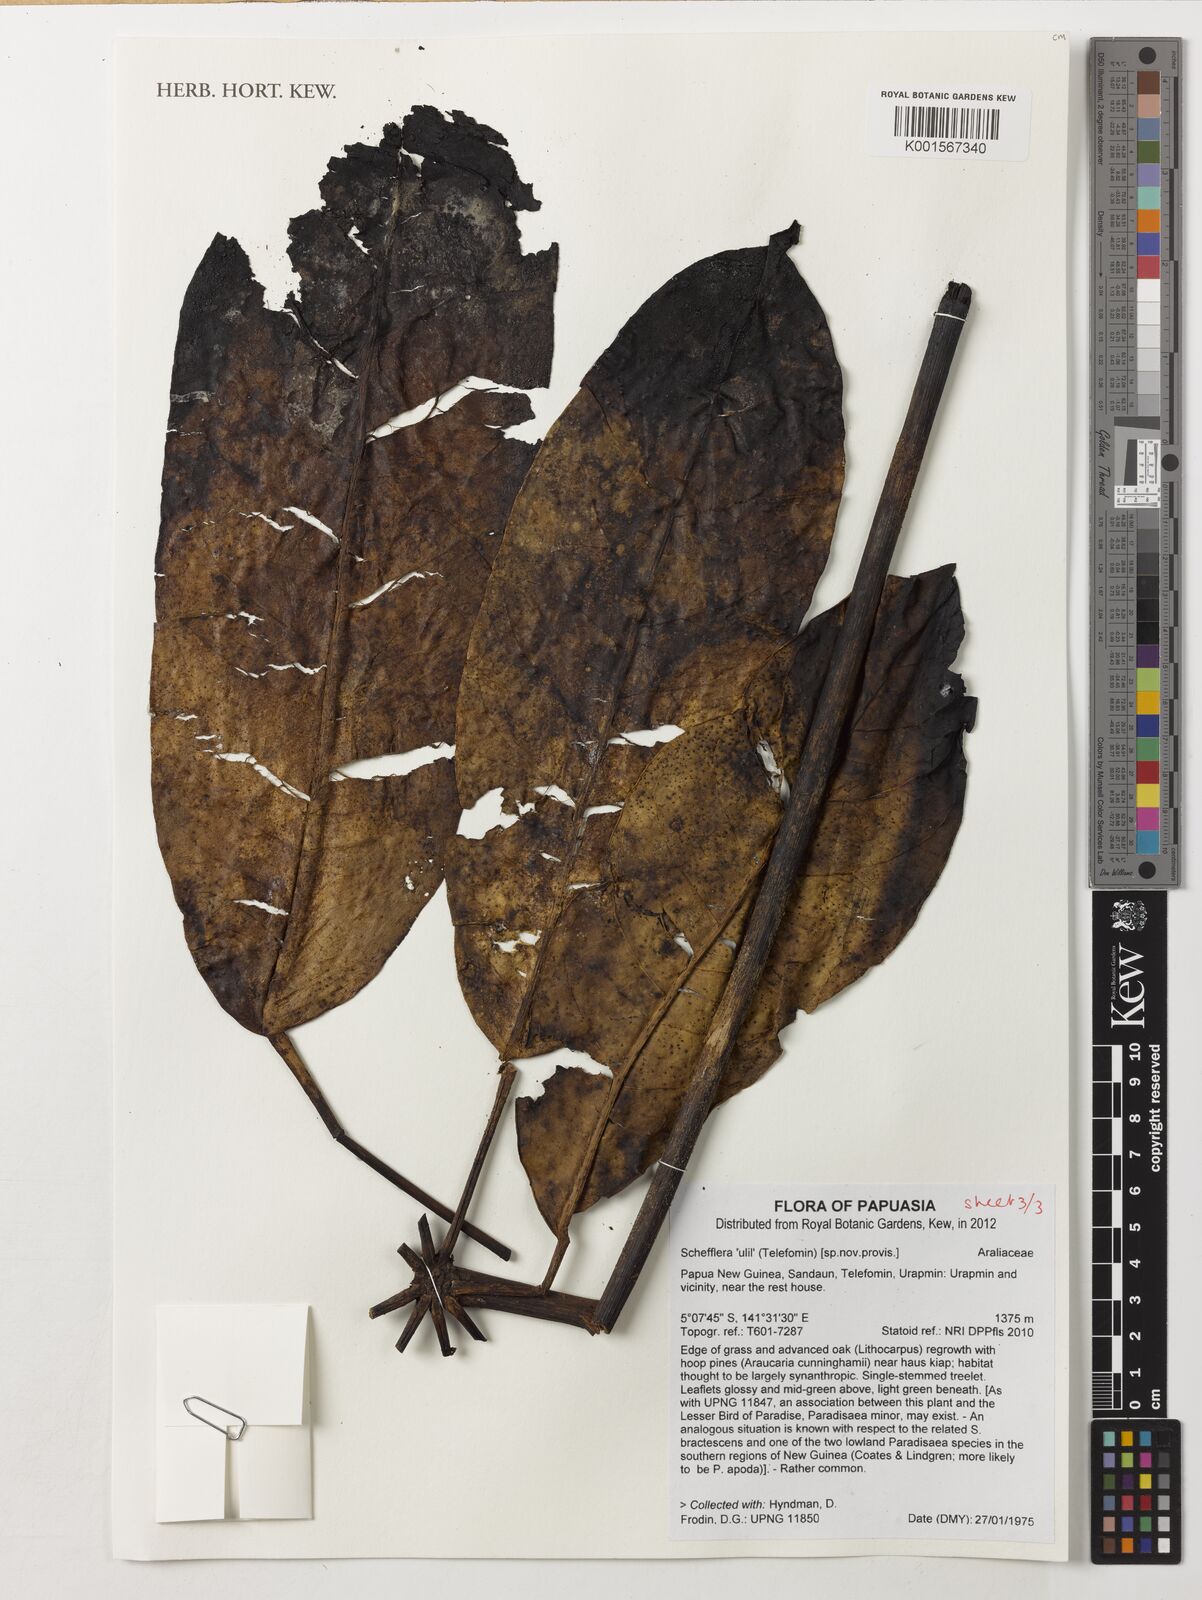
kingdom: Plantae
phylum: Tracheophyta
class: Magnoliopsida
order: Apiales
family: Araliaceae
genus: Schefflera
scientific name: Schefflera
